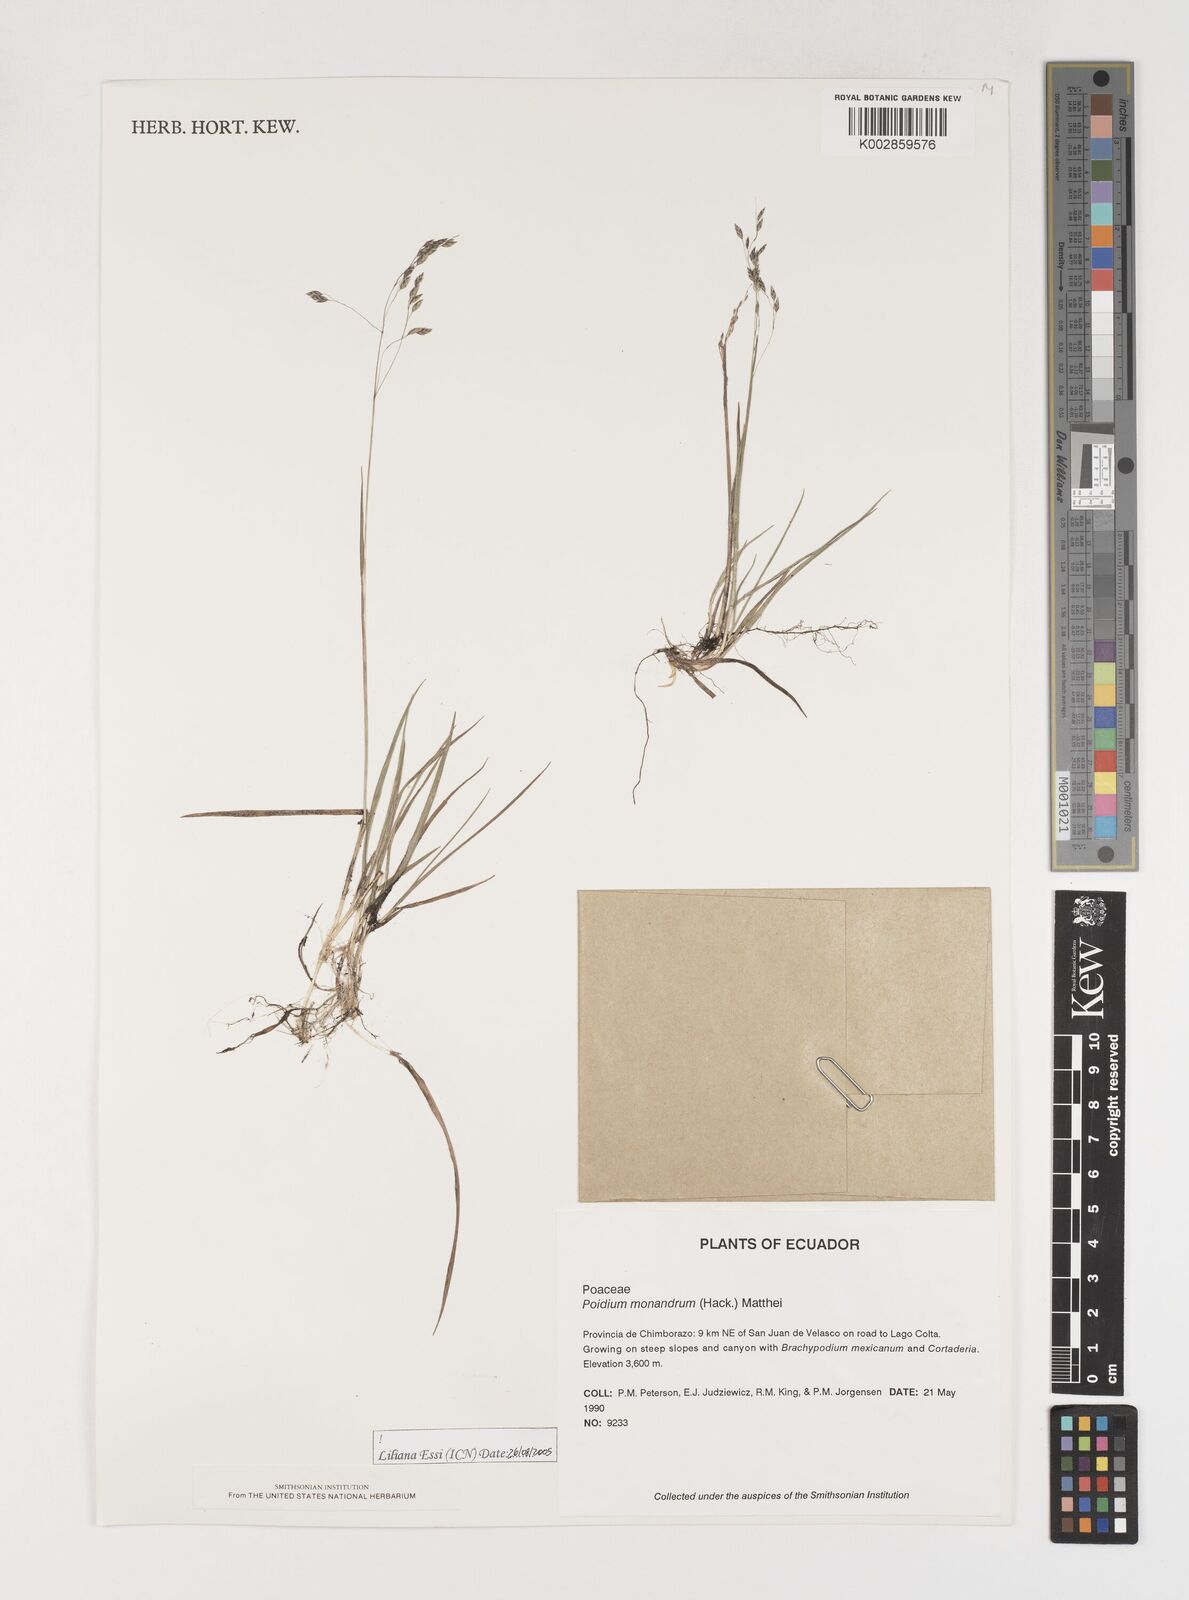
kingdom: Plantae
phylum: Tracheophyta
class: Liliopsida
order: Poales
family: Poaceae
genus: Poidium
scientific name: Poidium monandrum
